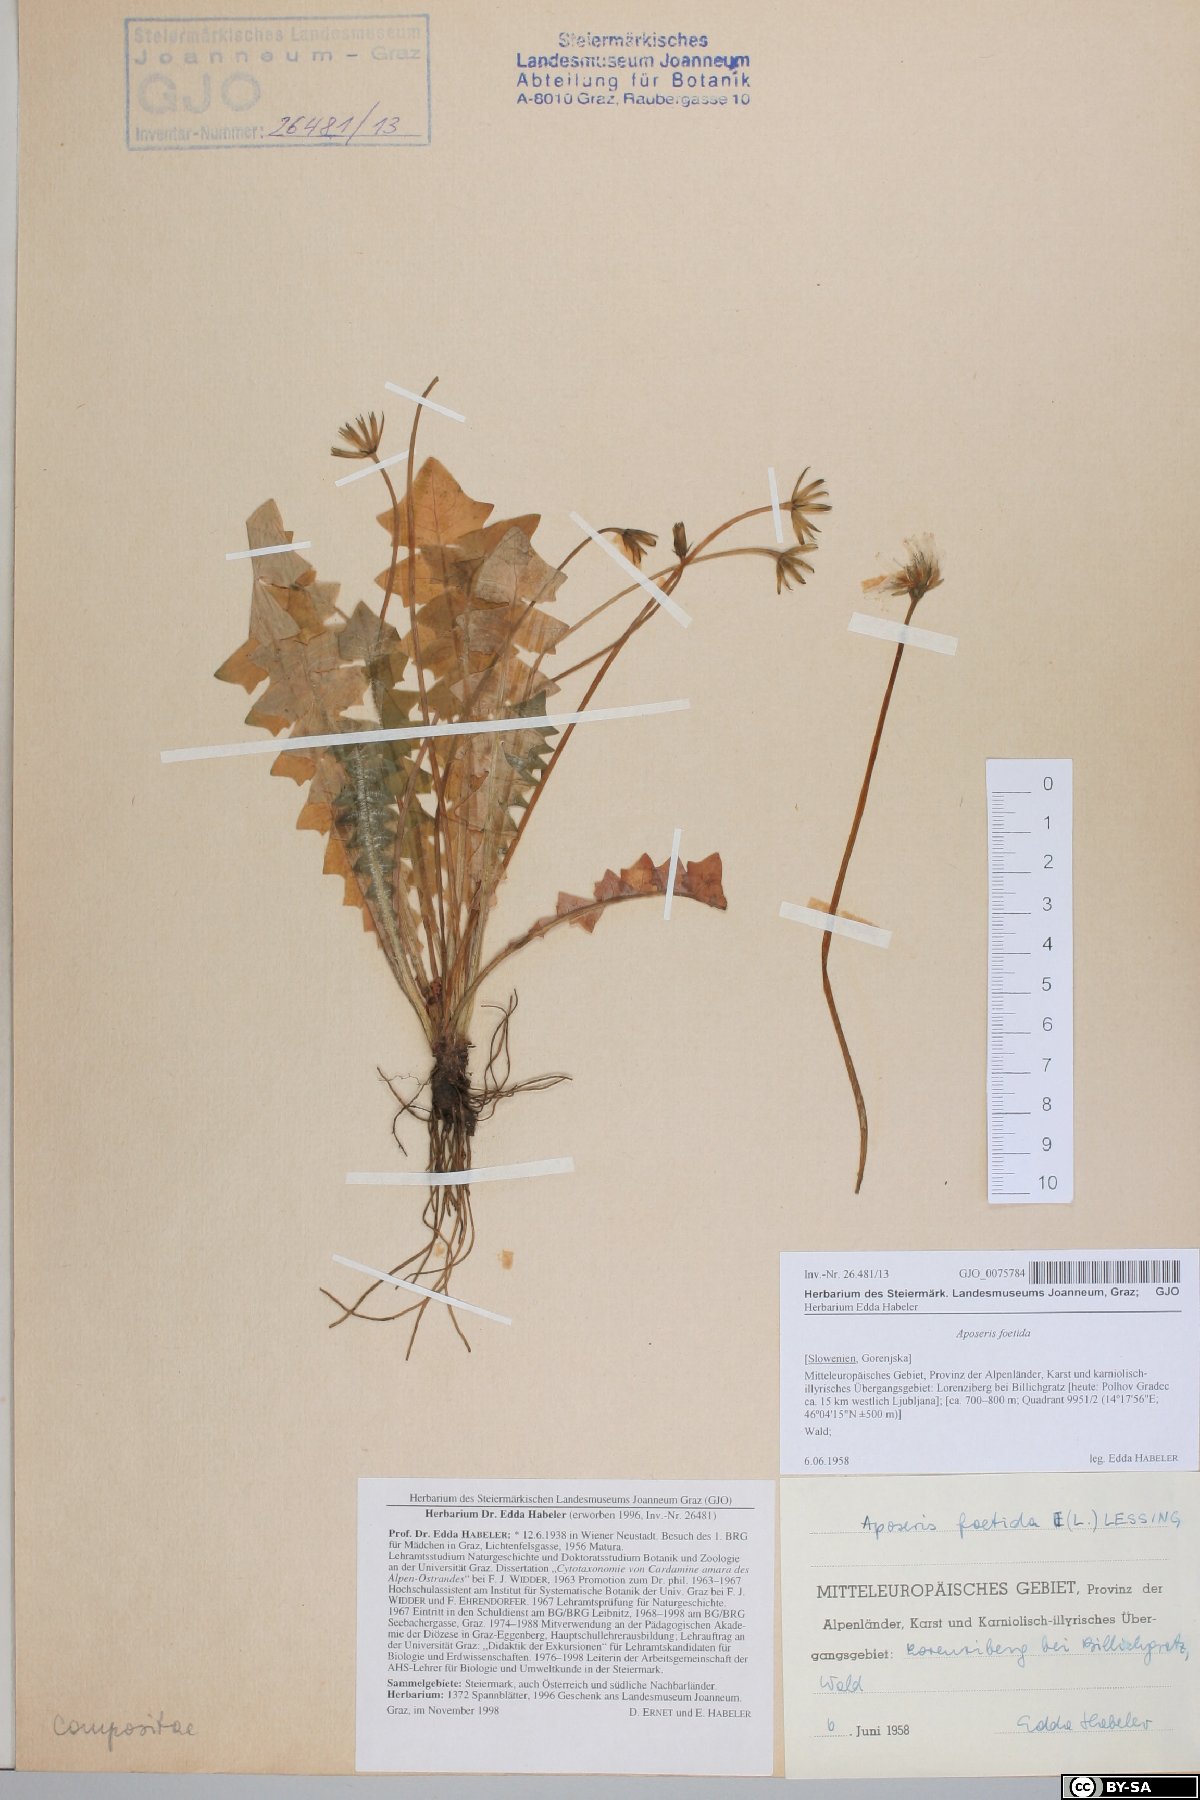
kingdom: Plantae
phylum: Tracheophyta
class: Magnoliopsida
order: Asterales
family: Asteraceae
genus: Aposeris
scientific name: Aposeris foetida
